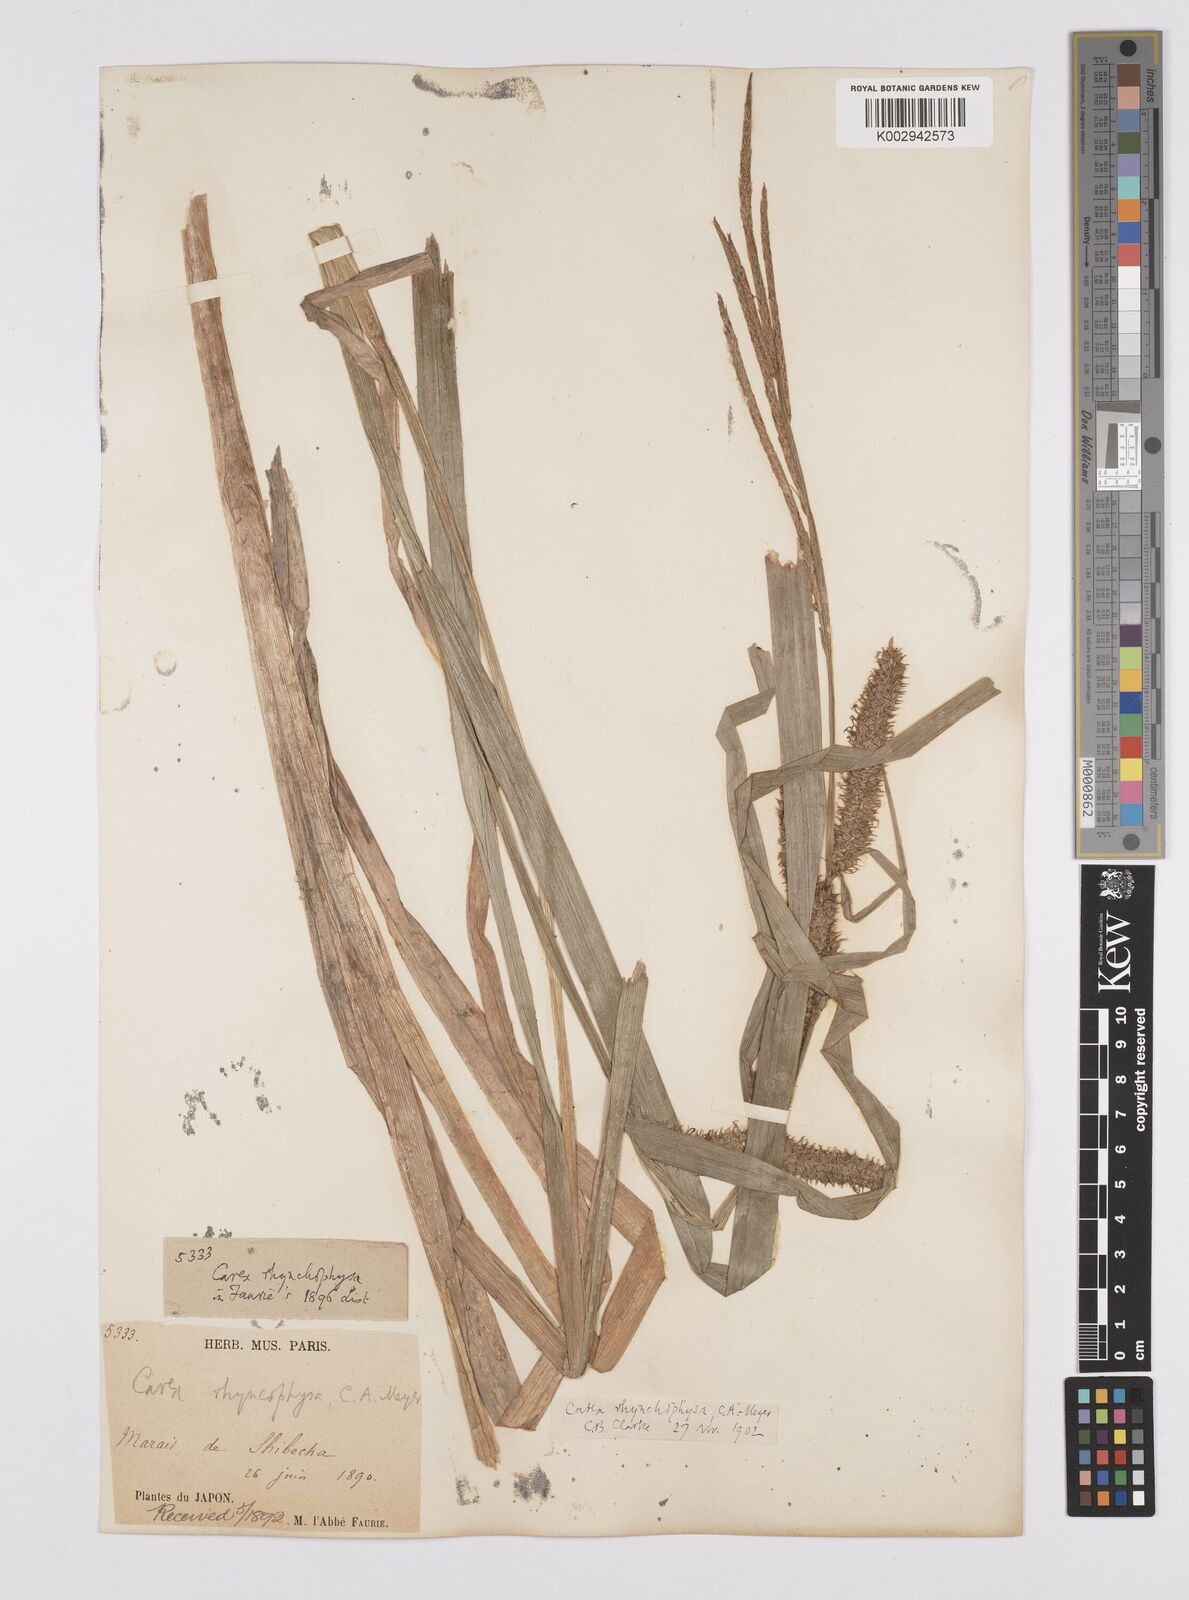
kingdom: Plantae
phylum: Tracheophyta
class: Liliopsida
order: Poales
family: Cyperaceae
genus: Carex
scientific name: Carex utriculata
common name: Beaked sedge
